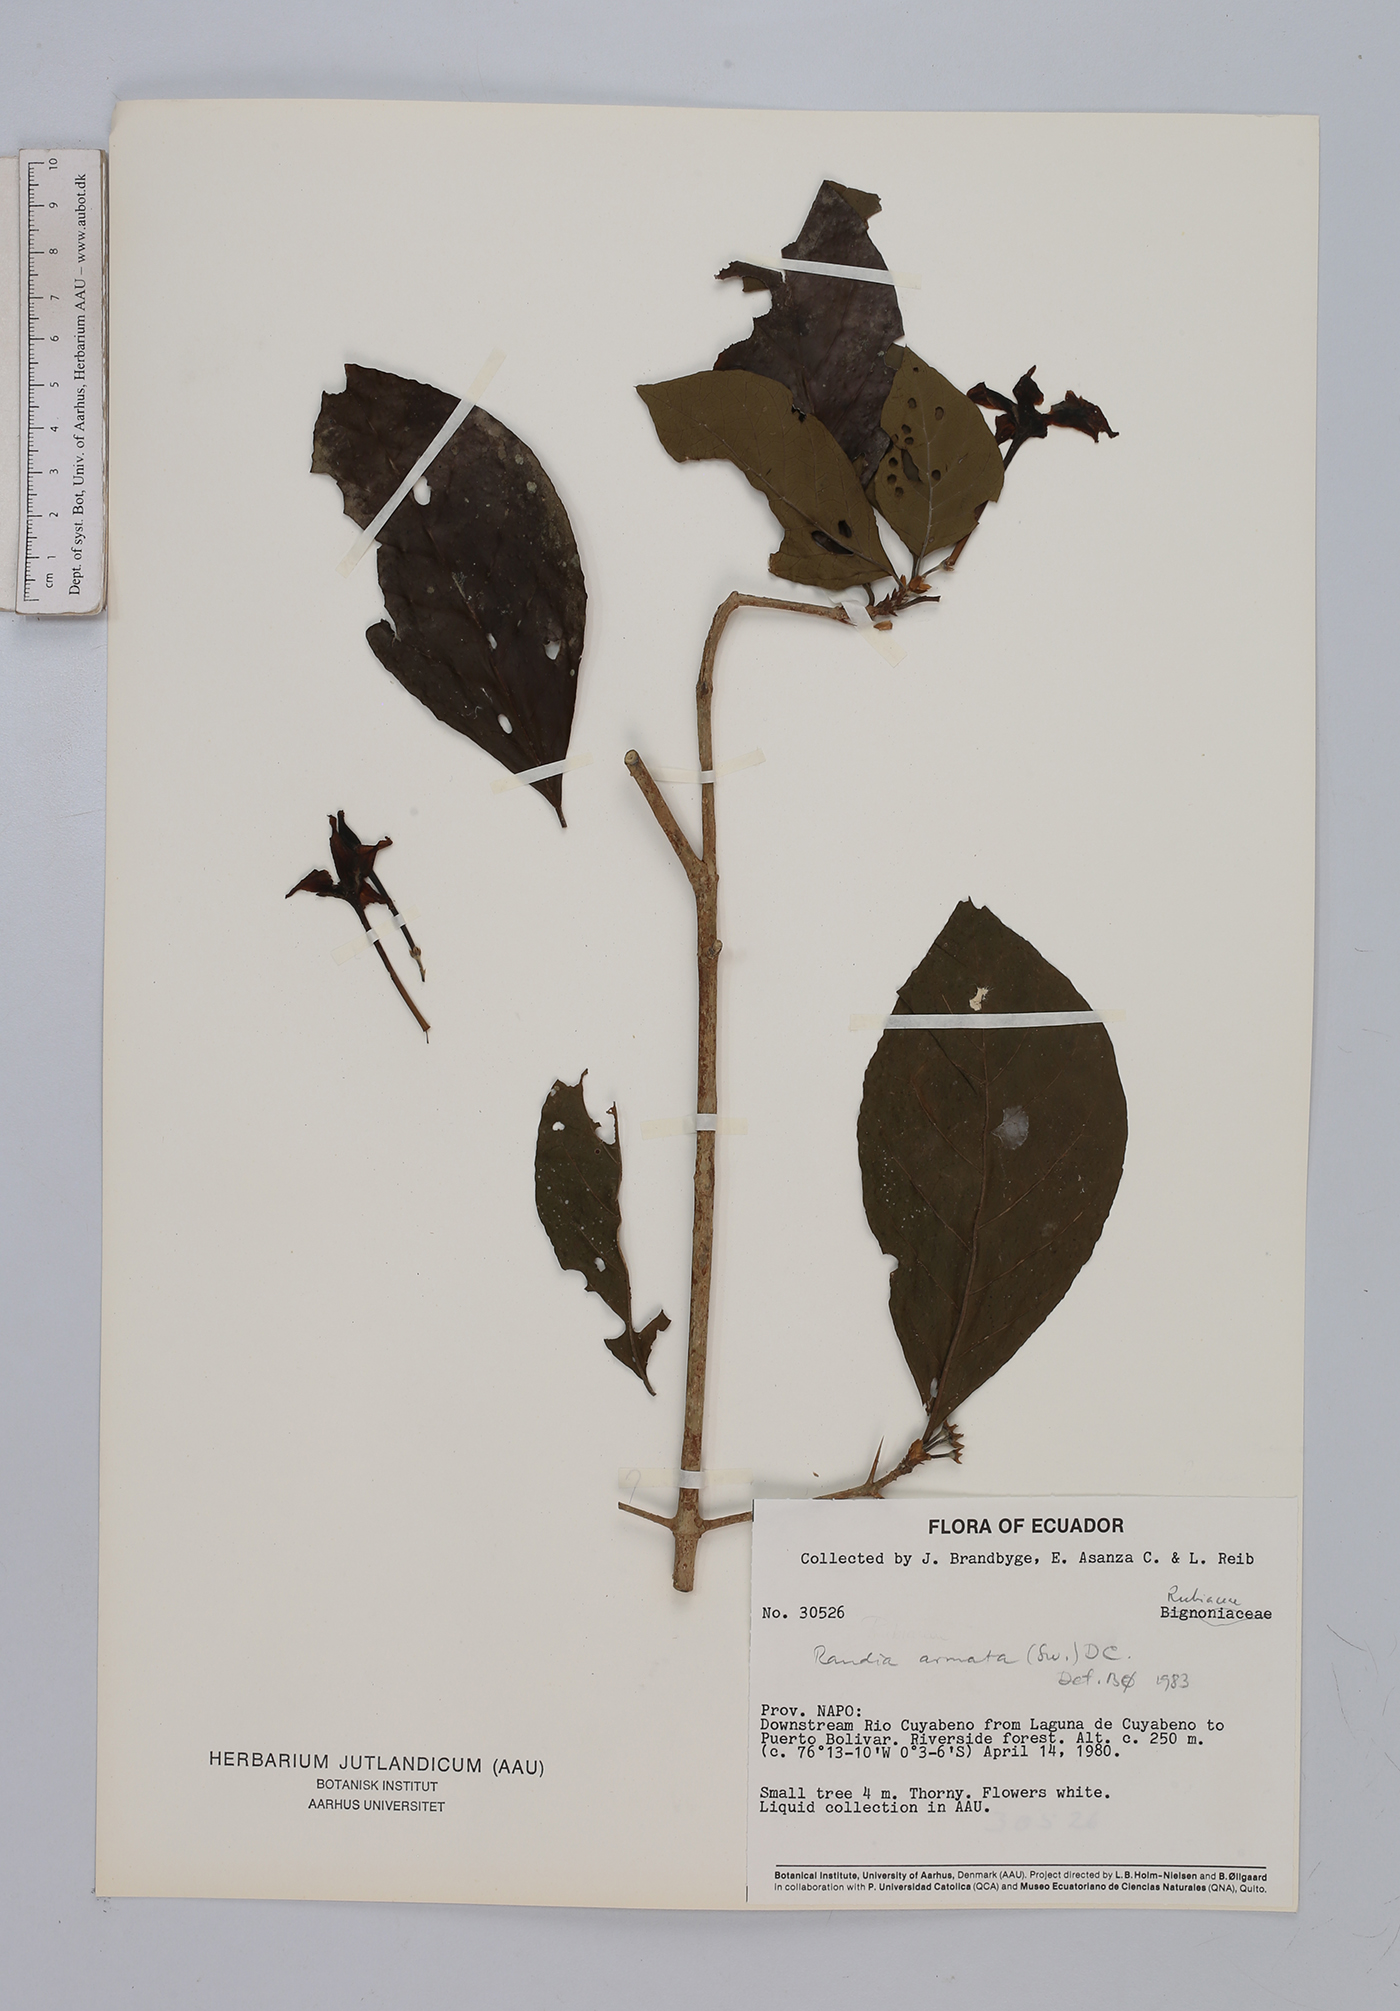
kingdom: Plantae
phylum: Tracheophyta
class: Magnoliopsida
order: Gentianales
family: Rubiaceae
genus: Randia
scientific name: Randia armata
